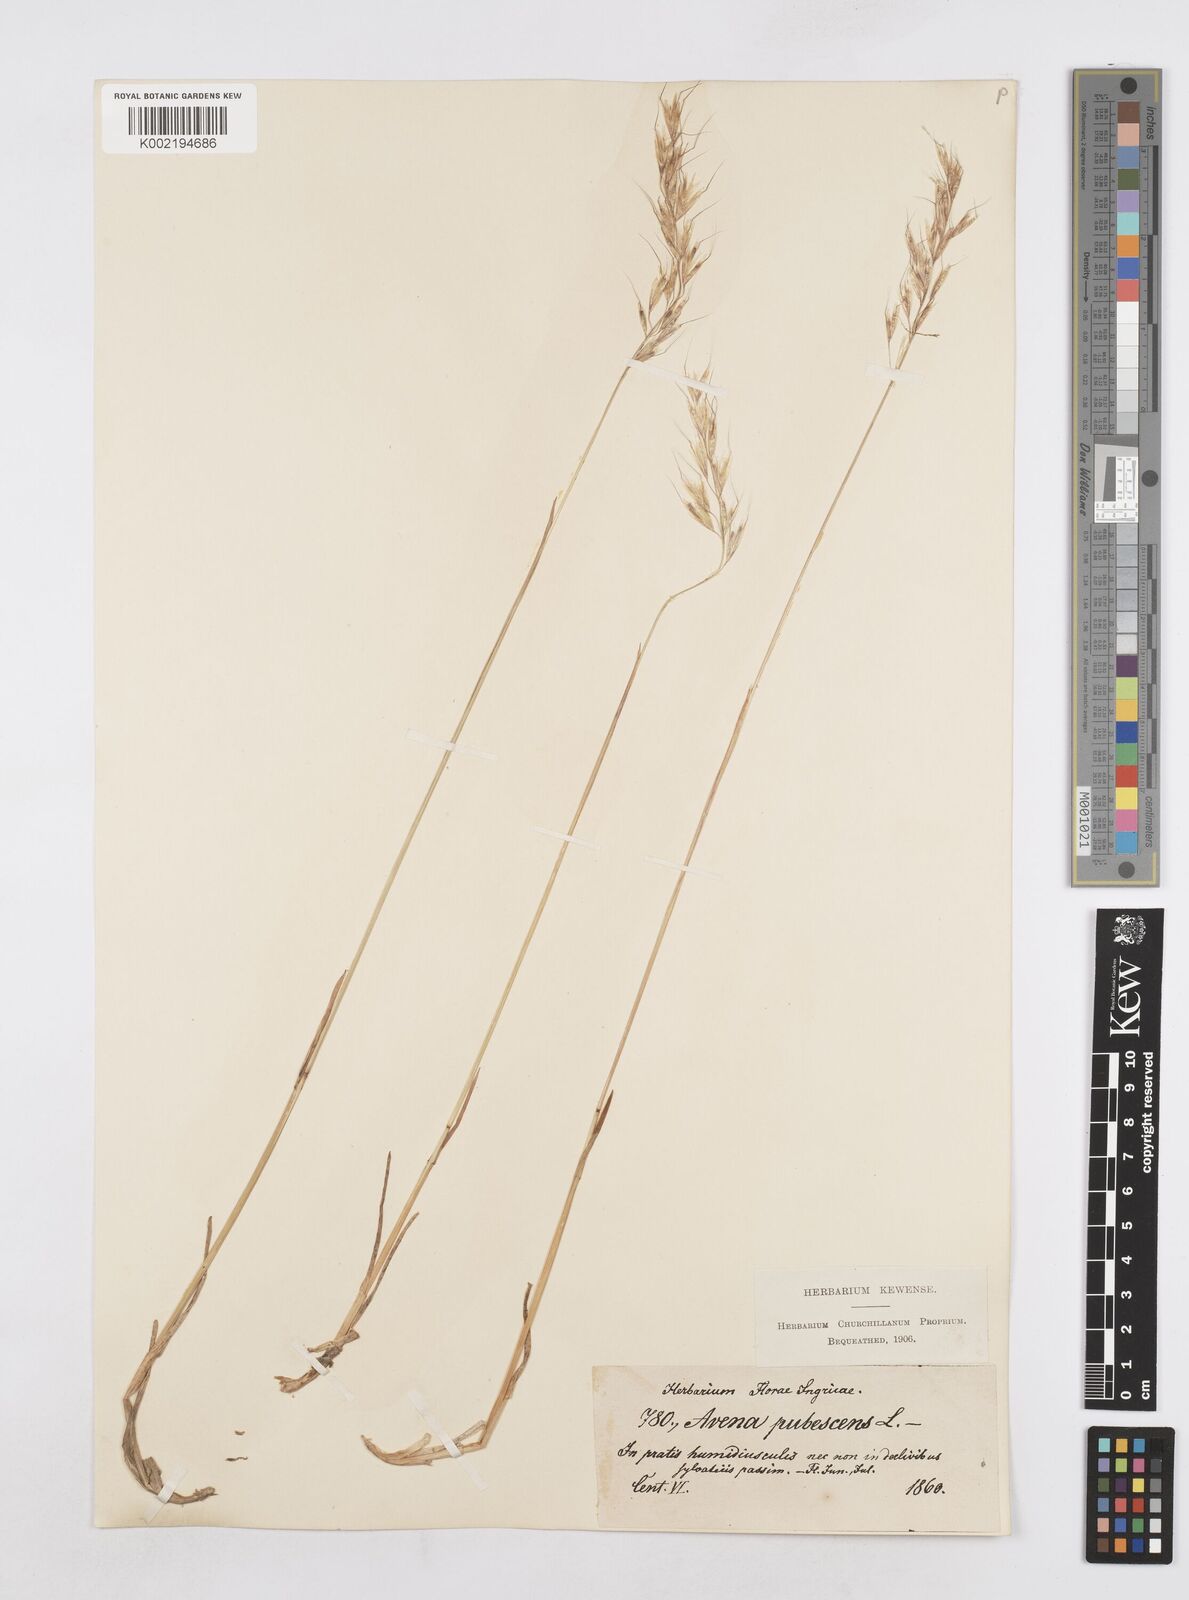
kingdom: Plantae
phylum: Tracheophyta
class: Liliopsida
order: Poales
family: Poaceae
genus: Avenula
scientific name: Avenula pubescens
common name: Downy alpine oatgrass
